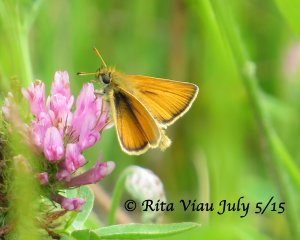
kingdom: Animalia
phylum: Arthropoda
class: Insecta
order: Lepidoptera
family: Hesperiidae
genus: Thymelicus
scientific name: Thymelicus lineola
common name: European Skipper
